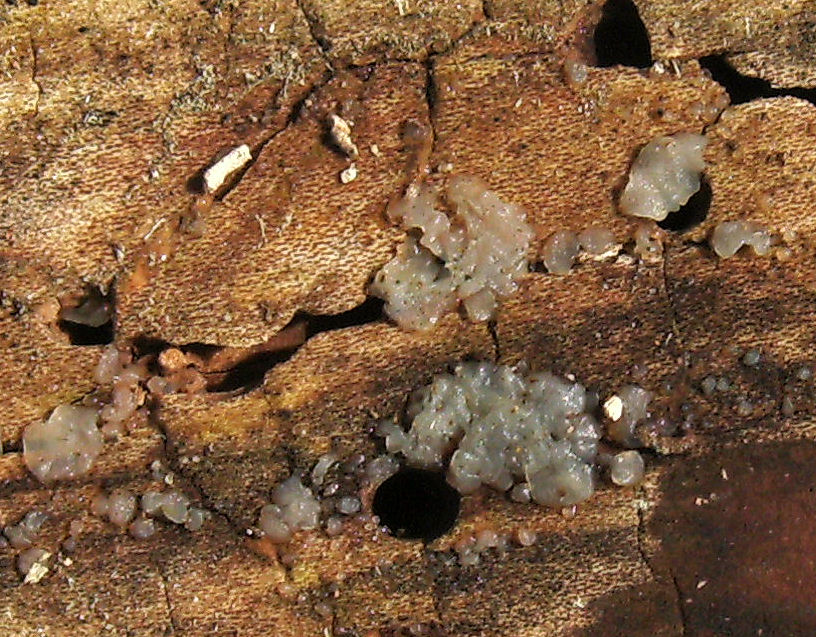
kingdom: Fungi
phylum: Basidiomycota
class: Agaricomycetes
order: Auriculariales
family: Hyaloriaceae
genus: Myxarium
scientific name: Myxarium nucleatum
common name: klar bævretop
